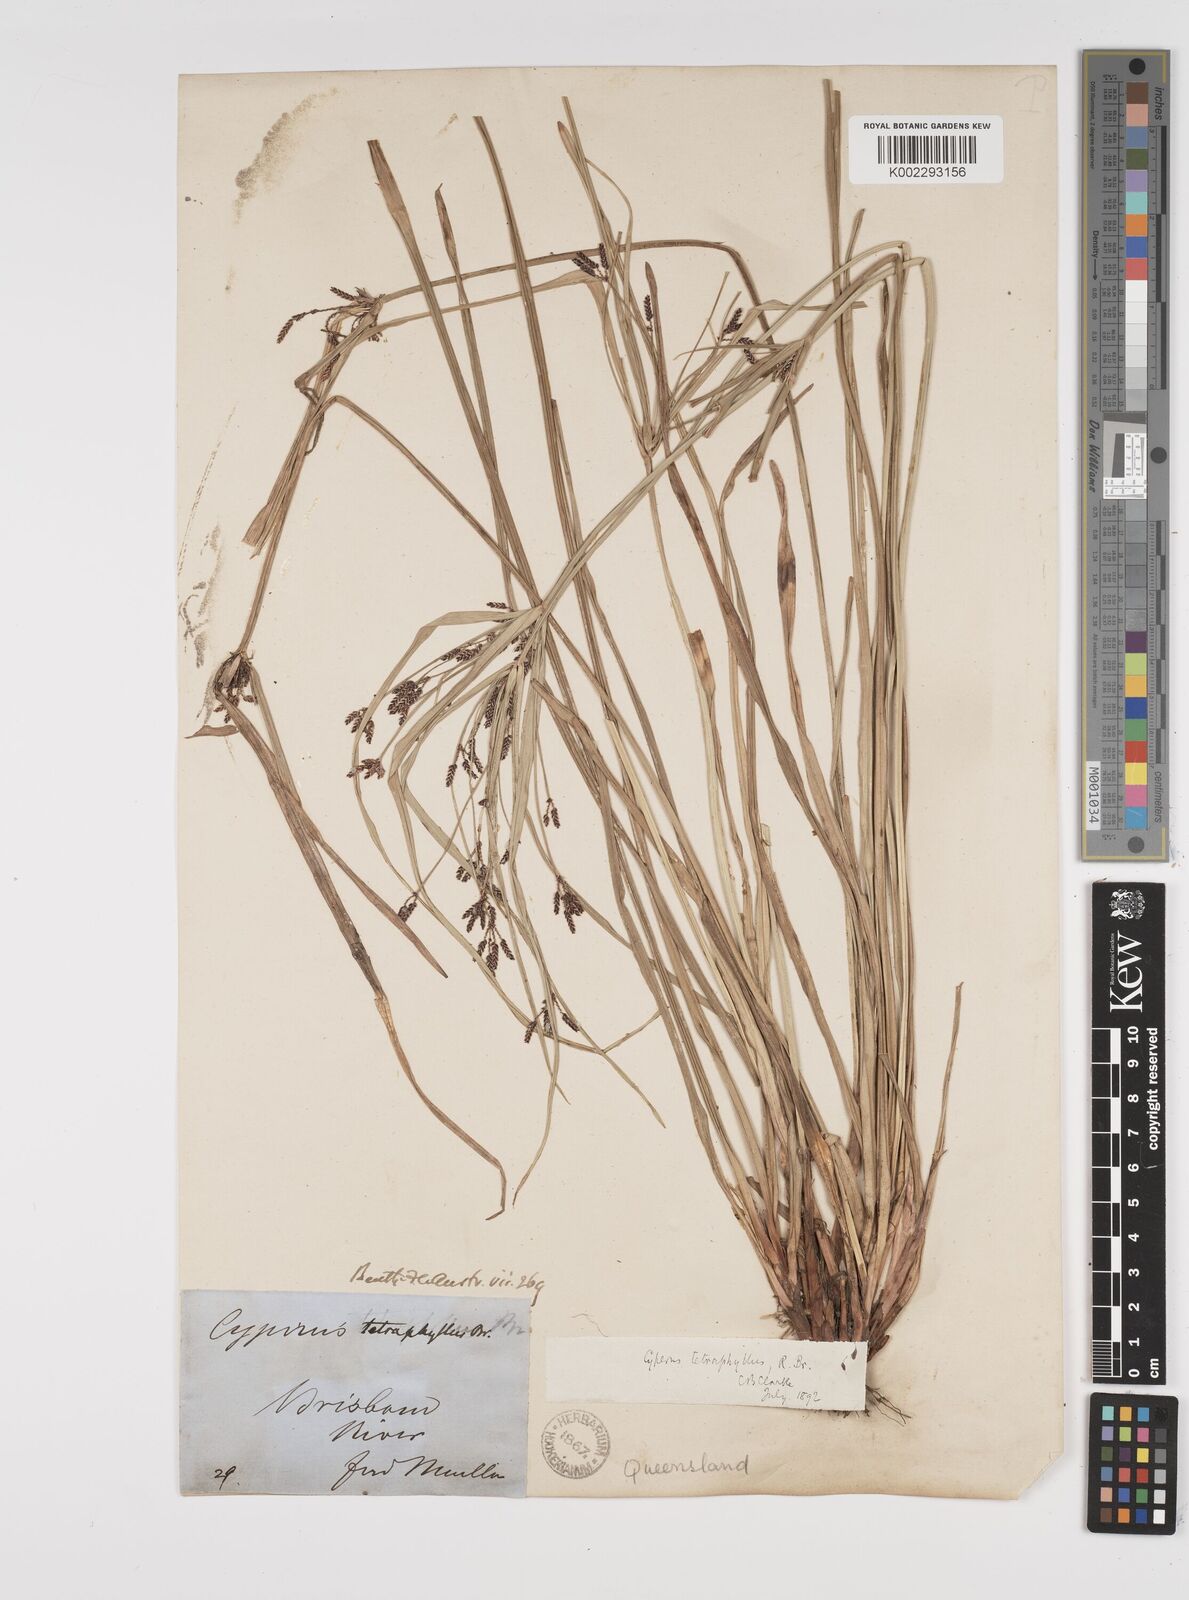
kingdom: Plantae
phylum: Tracheophyta
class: Liliopsida
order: Poales
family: Cyperaceae
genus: Cyperus
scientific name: Cyperus tetraphyllus
